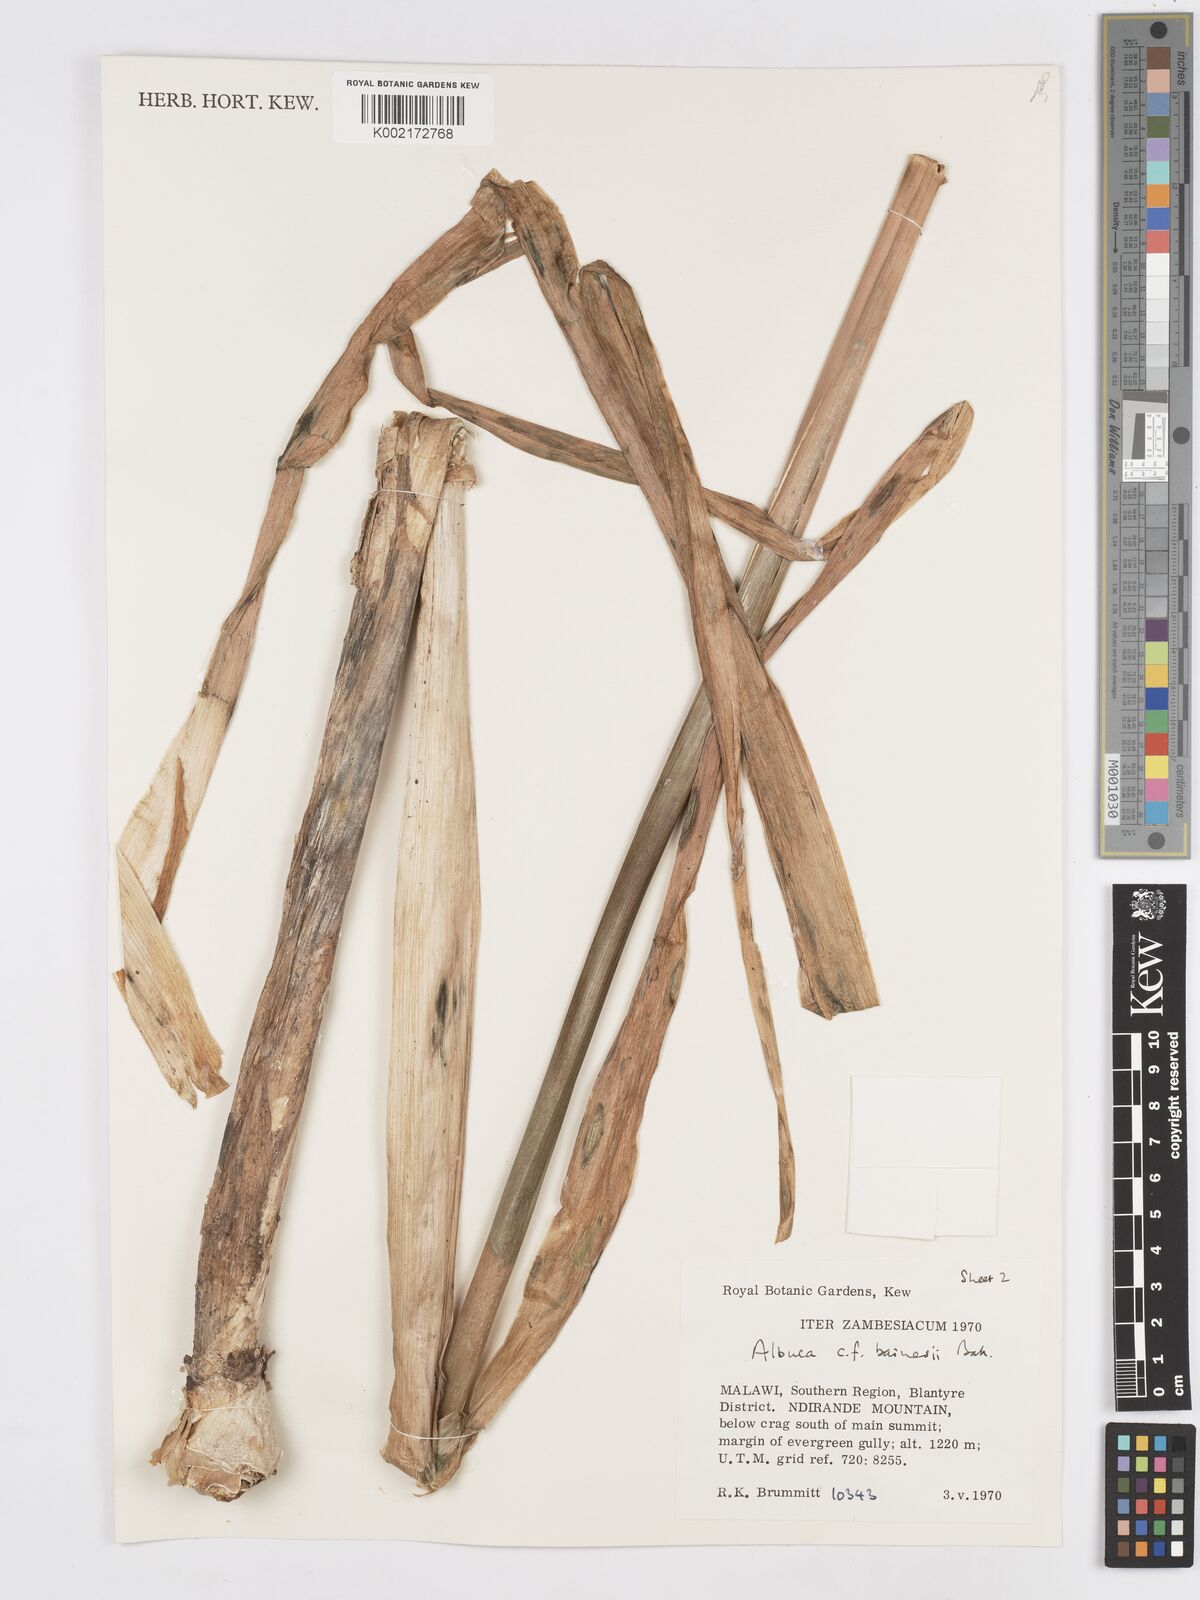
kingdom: Plantae
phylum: Tracheophyta
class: Liliopsida
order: Asparagales
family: Asparagaceae
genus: Albuca
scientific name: Albuca abyssinica
